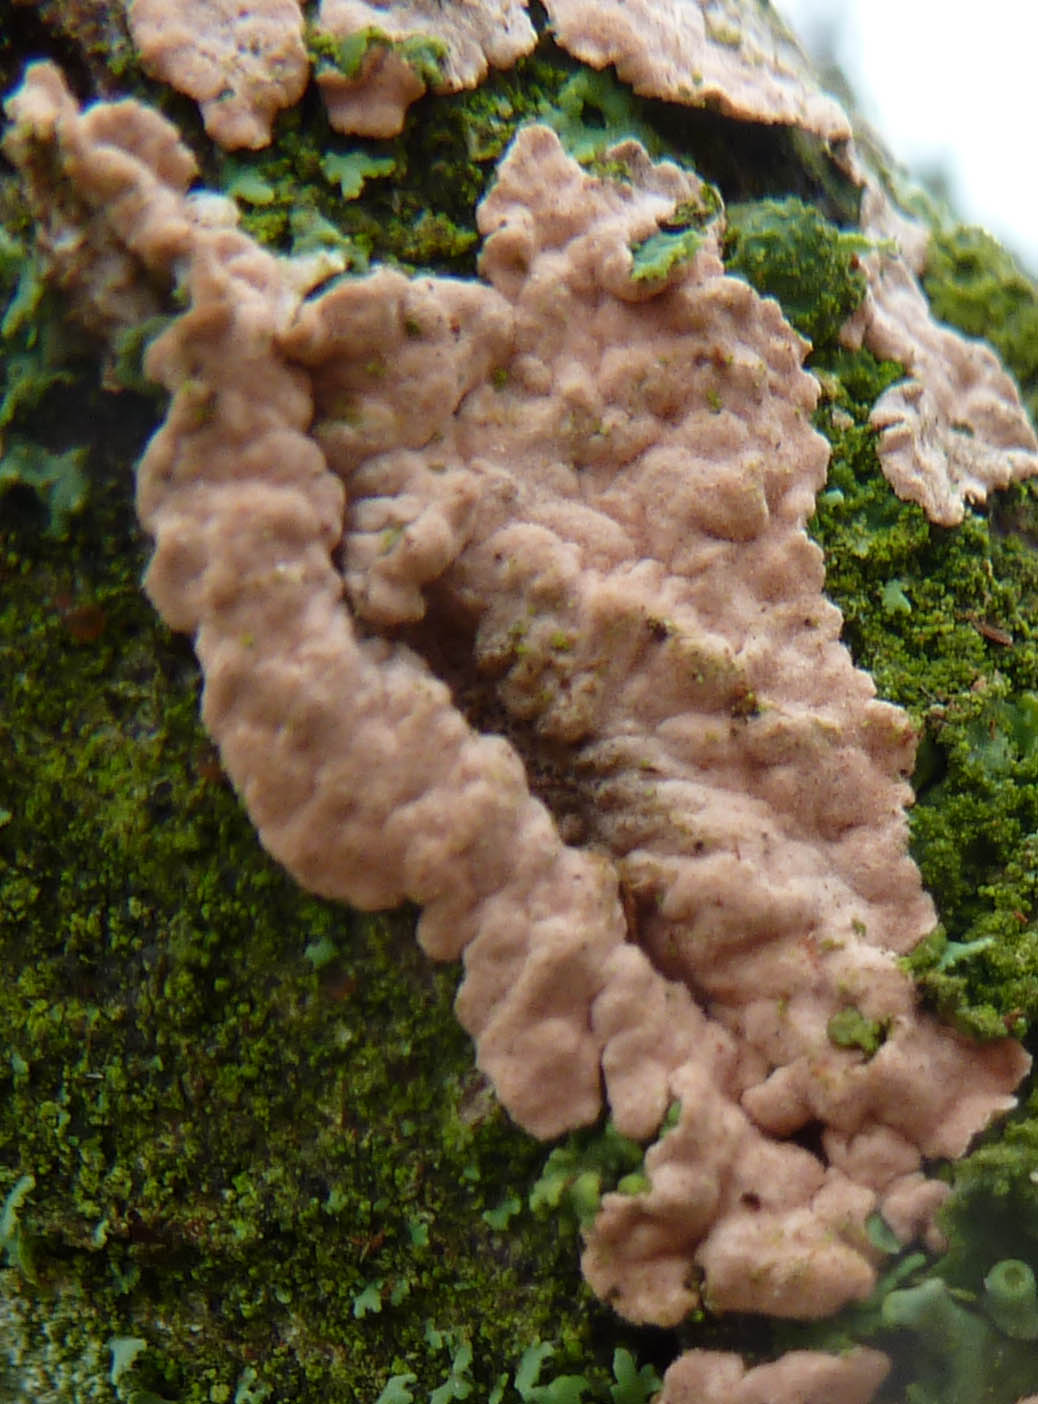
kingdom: Fungi
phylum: Basidiomycota
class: Agaricomycetes
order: Corticiales
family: Corticiaceae
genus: Corticium
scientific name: Corticium roseum
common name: rosa barkskind
